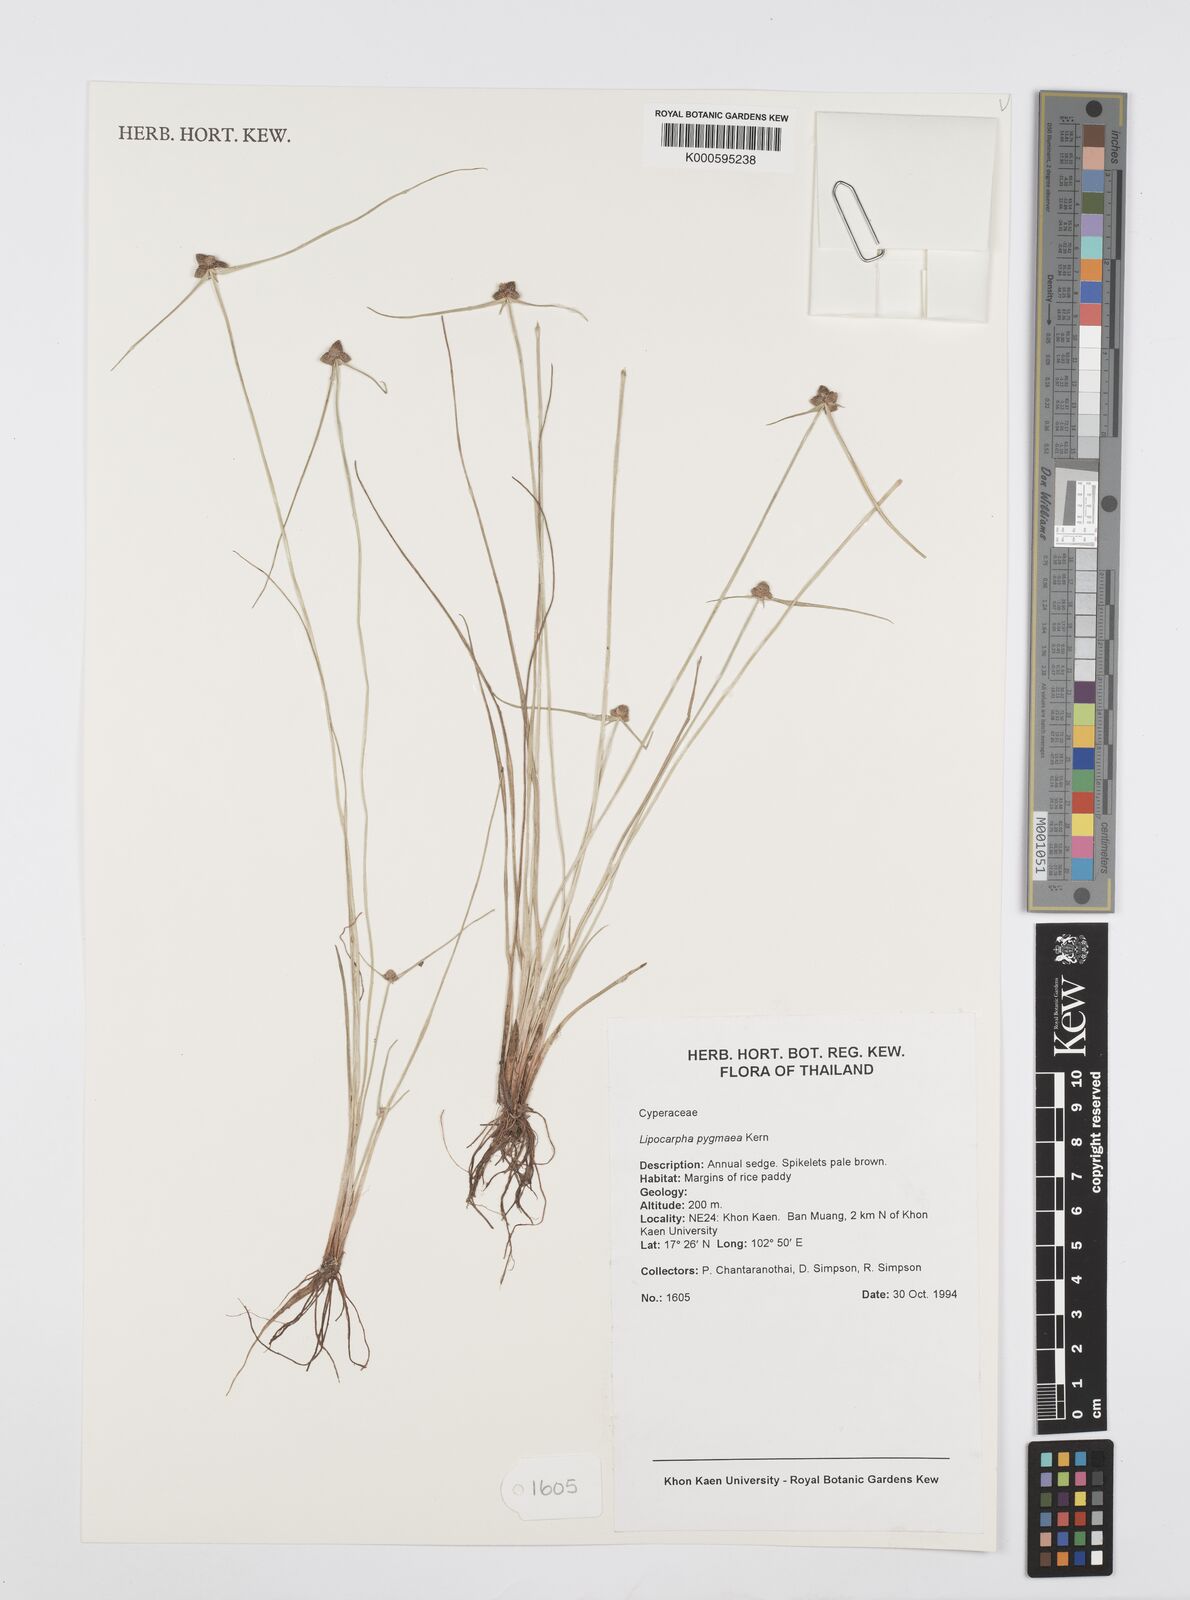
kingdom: Plantae
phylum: Tracheophyta
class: Liliopsida
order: Poales
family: Cyperaceae
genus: Cyperus
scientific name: Cyperus lipopygmaeus
